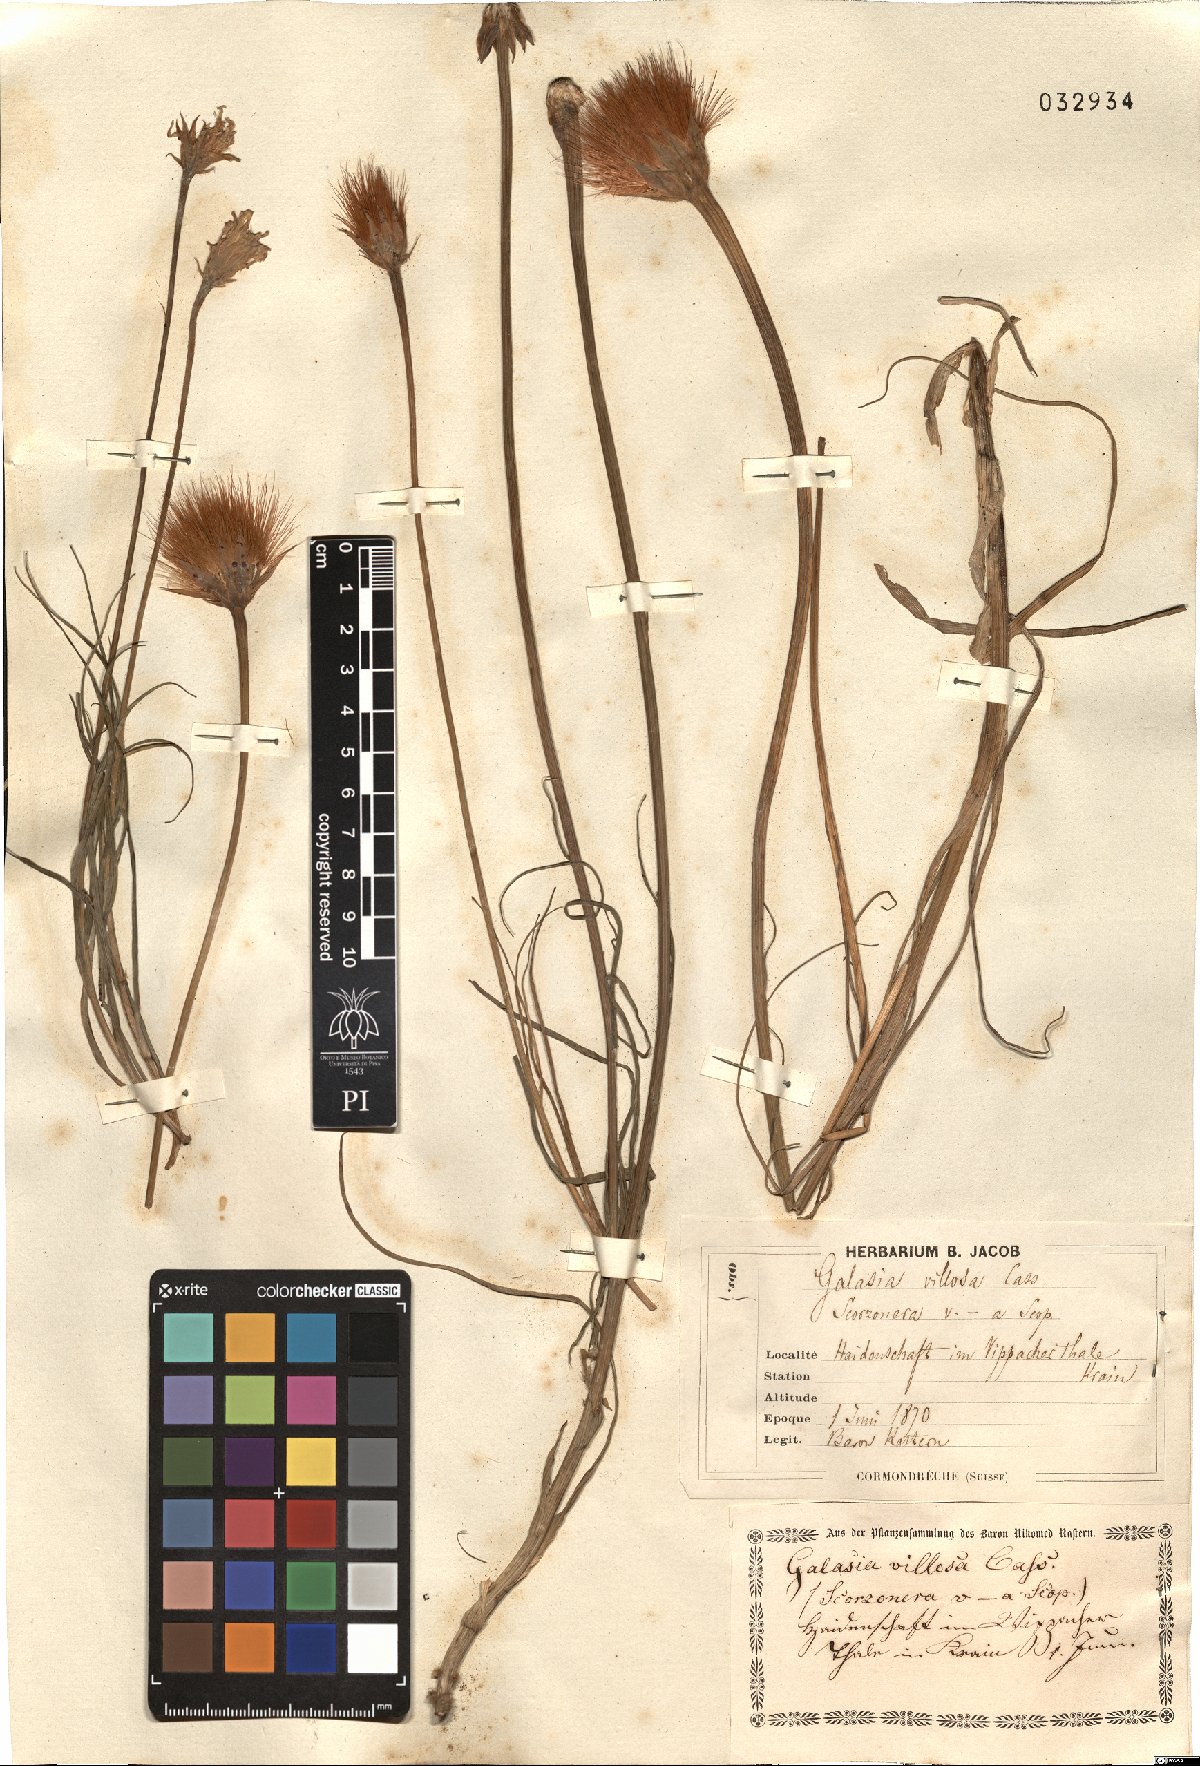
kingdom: Plantae
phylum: Tracheophyta
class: Magnoliopsida
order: Asterales
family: Asteraceae
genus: Gelasia
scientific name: Gelasia villosa
